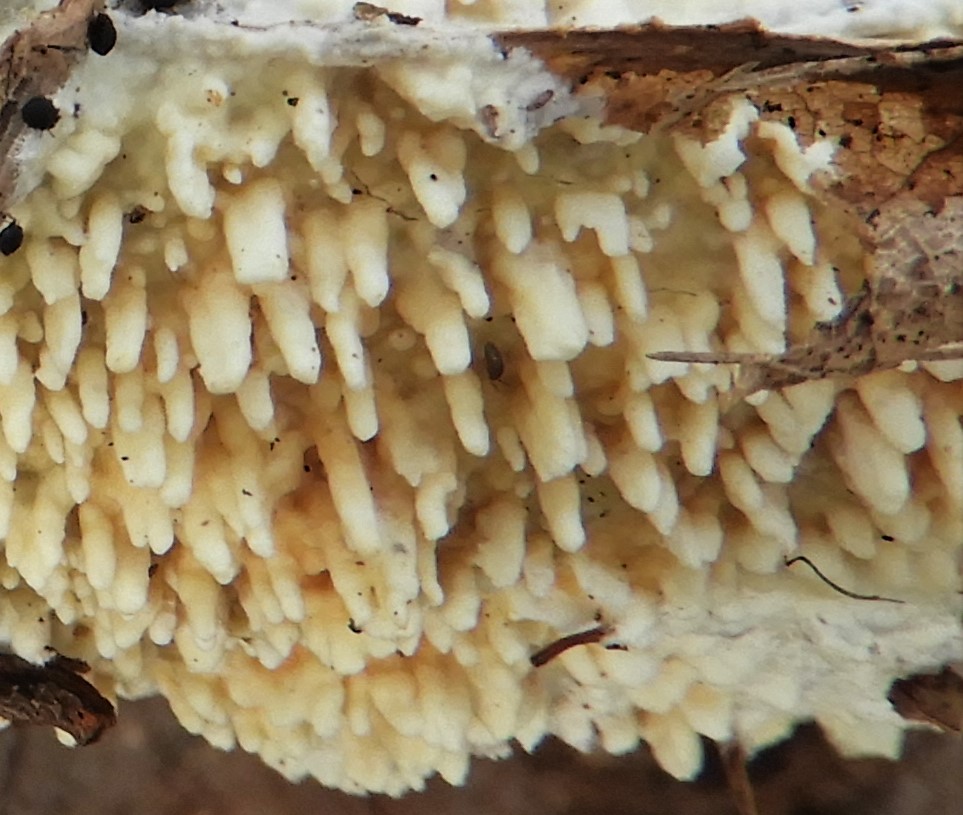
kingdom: Fungi
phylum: Basidiomycota
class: Agaricomycetes
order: Hymenochaetales
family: Schizoporaceae
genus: Xylodon
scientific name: Xylodon radula
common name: grovtandet kalkskind
